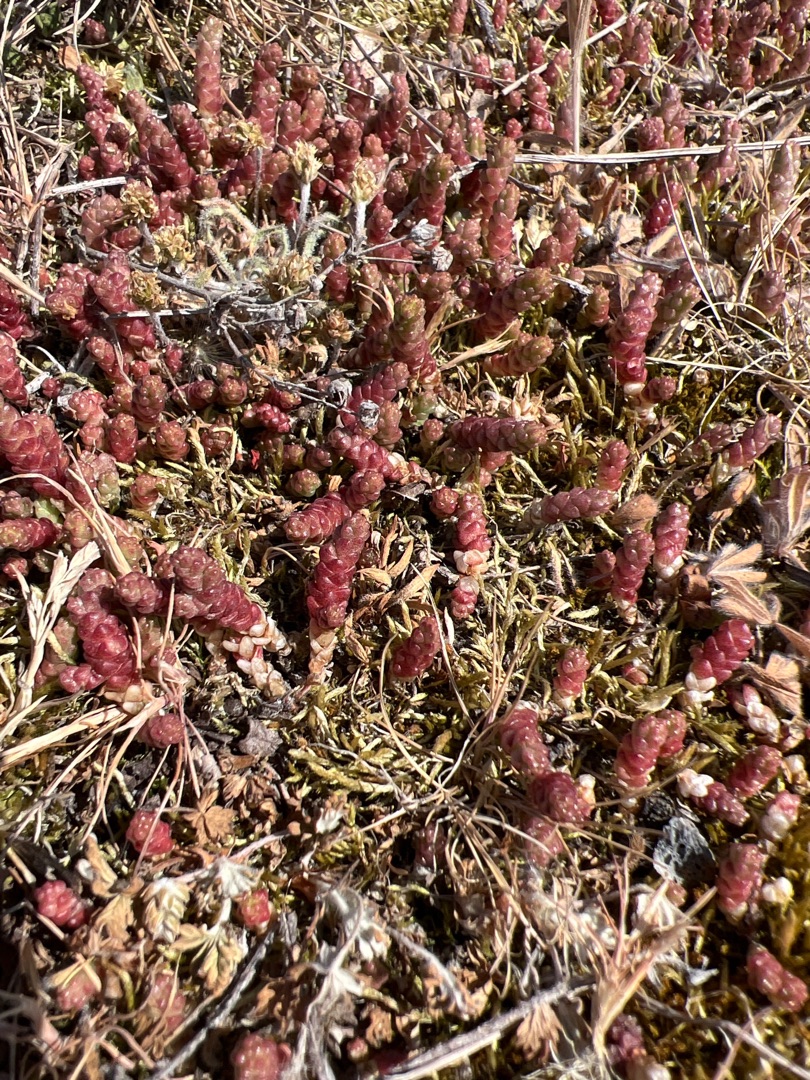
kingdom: Plantae
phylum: Tracheophyta
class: Magnoliopsida
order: Saxifragales
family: Crassulaceae
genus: Sedum
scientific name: Sedum acre
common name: Bidende stenurt
